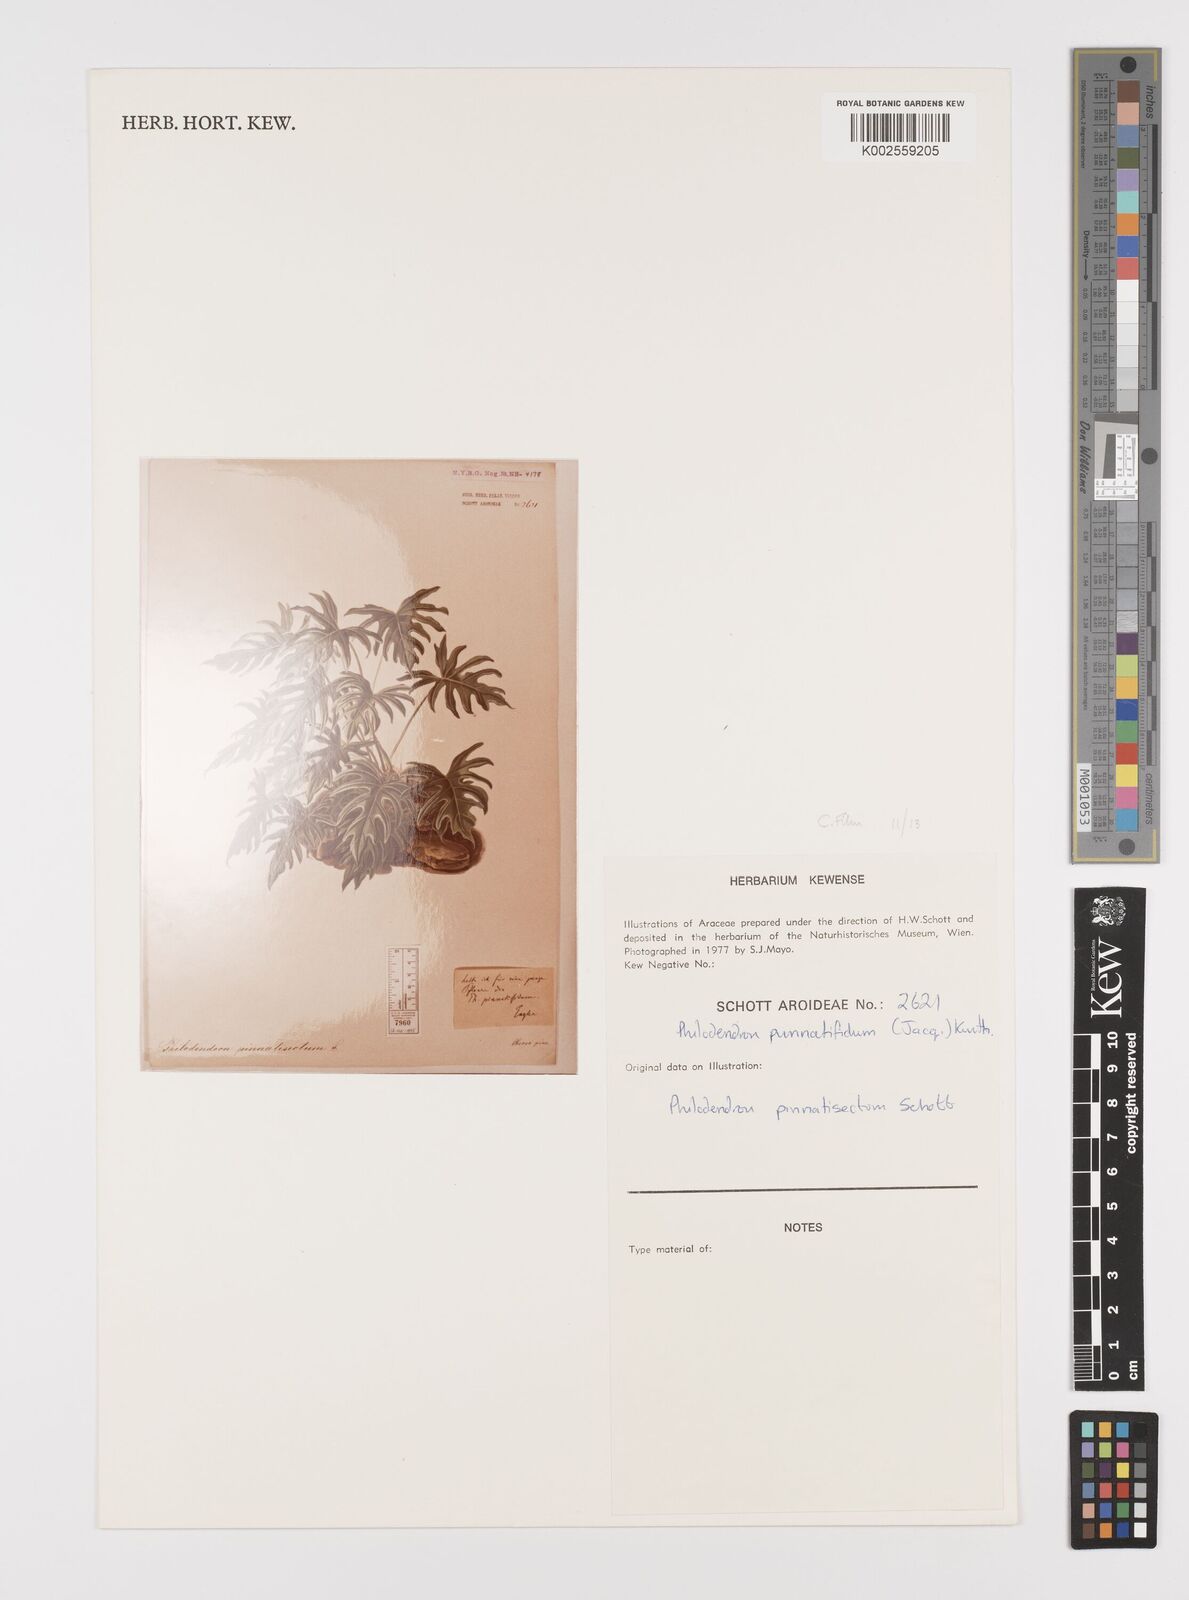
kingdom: Plantae
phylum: Tracheophyta
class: Liliopsida
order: Alismatales
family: Araceae
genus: Philodendron
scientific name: Philodendron pinnatifidum
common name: Comb-leaf philodendron
